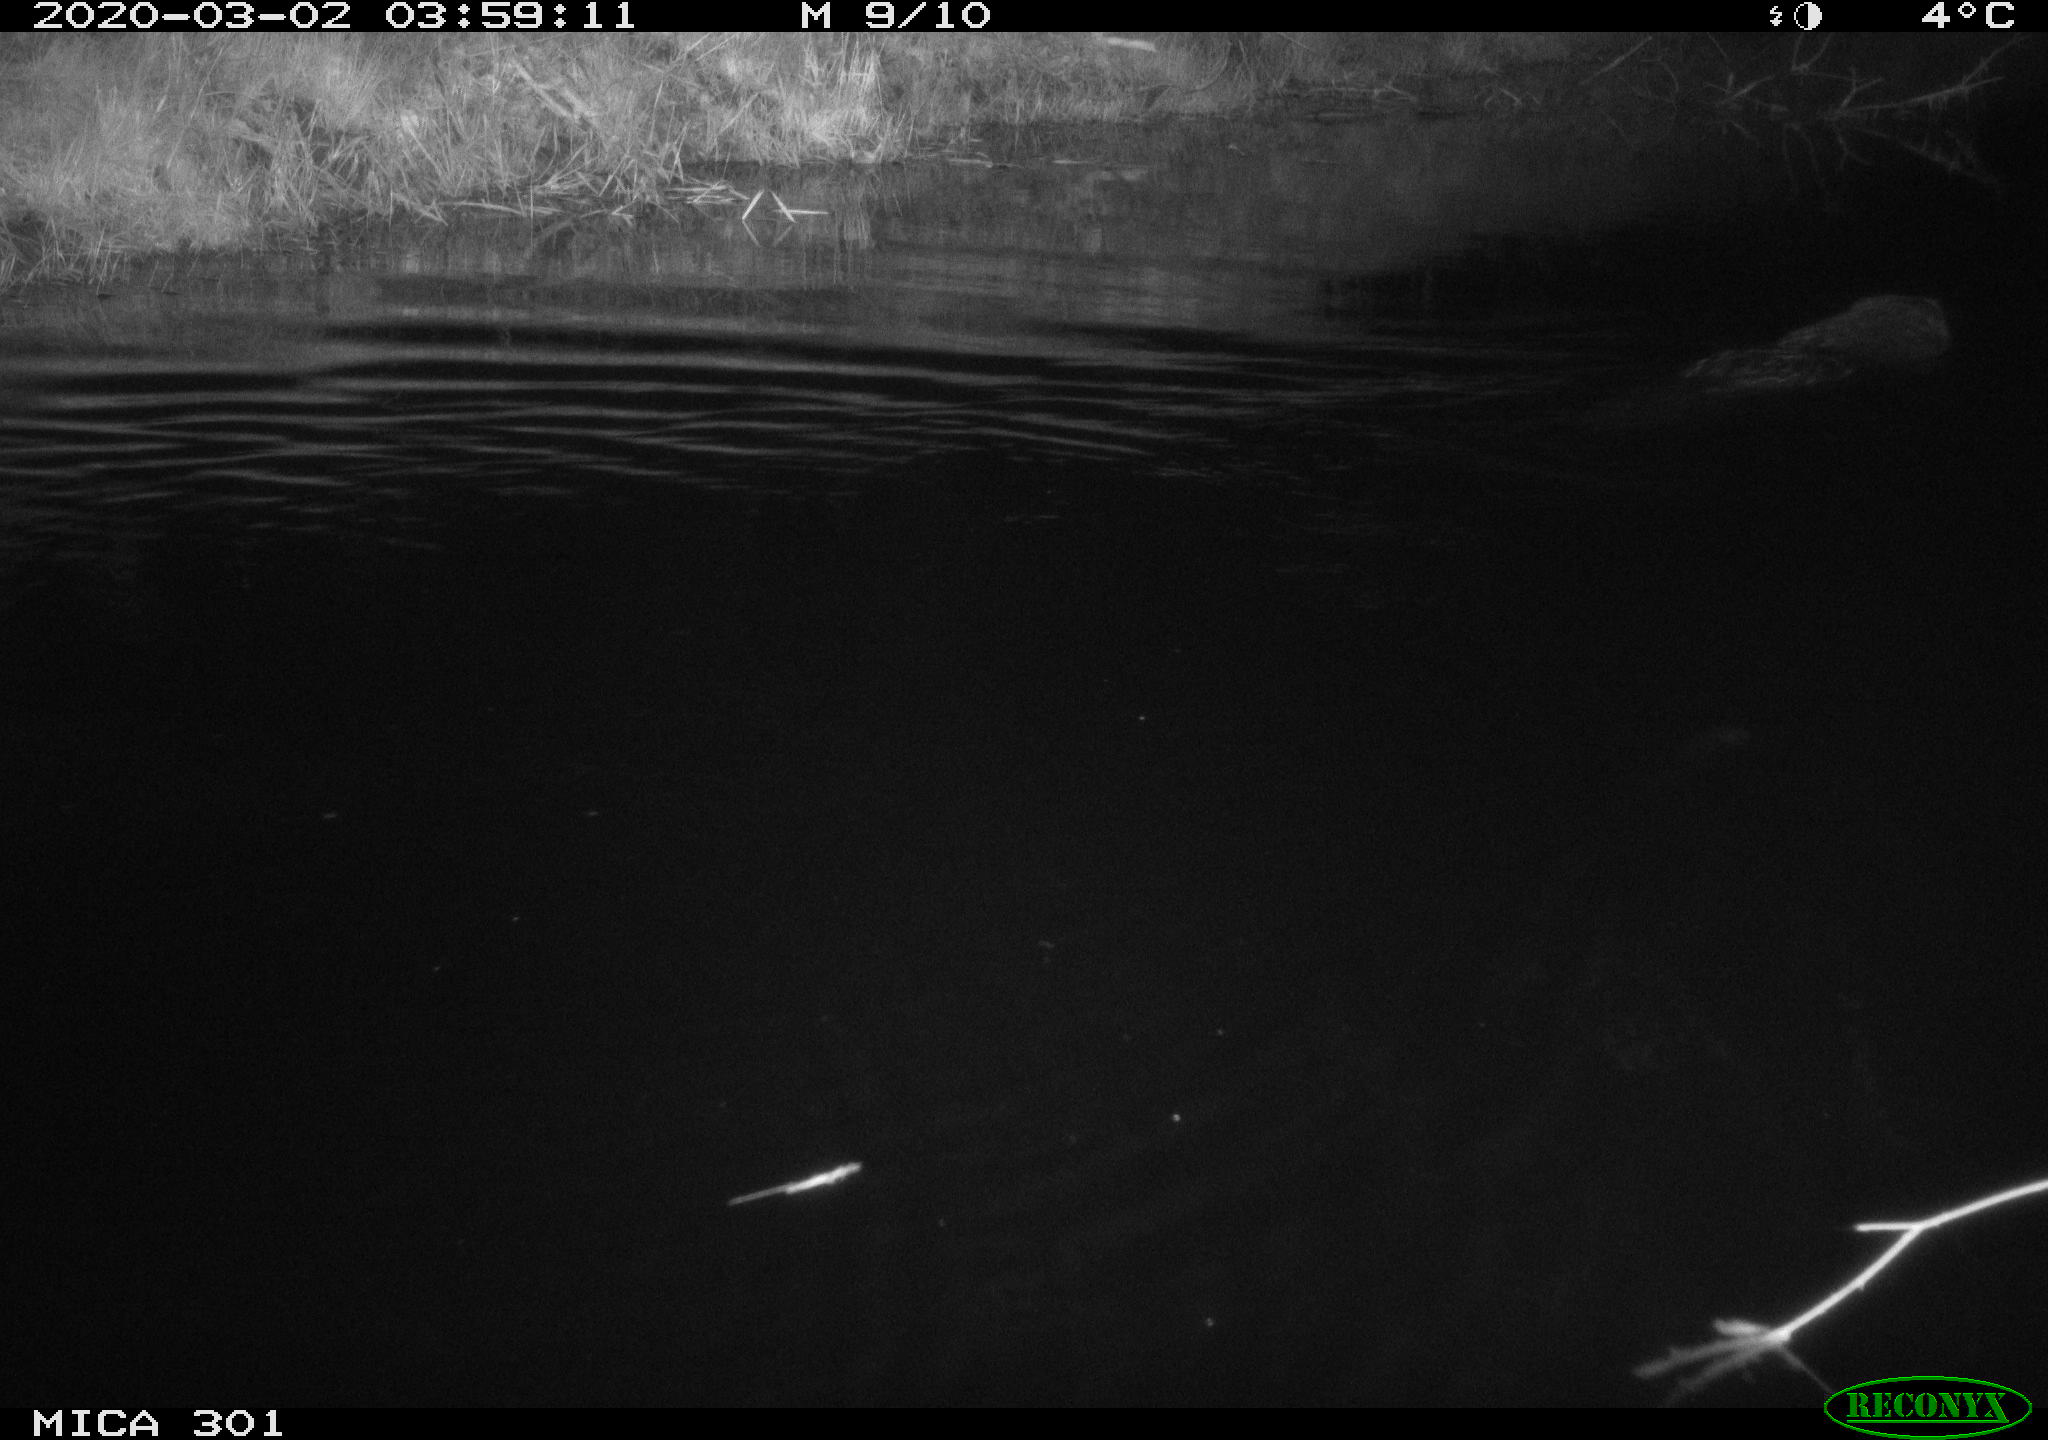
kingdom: Animalia
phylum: Chordata
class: Mammalia
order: Rodentia
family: Castoridae
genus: Castor
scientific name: Castor fiber
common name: Eurasian beaver
